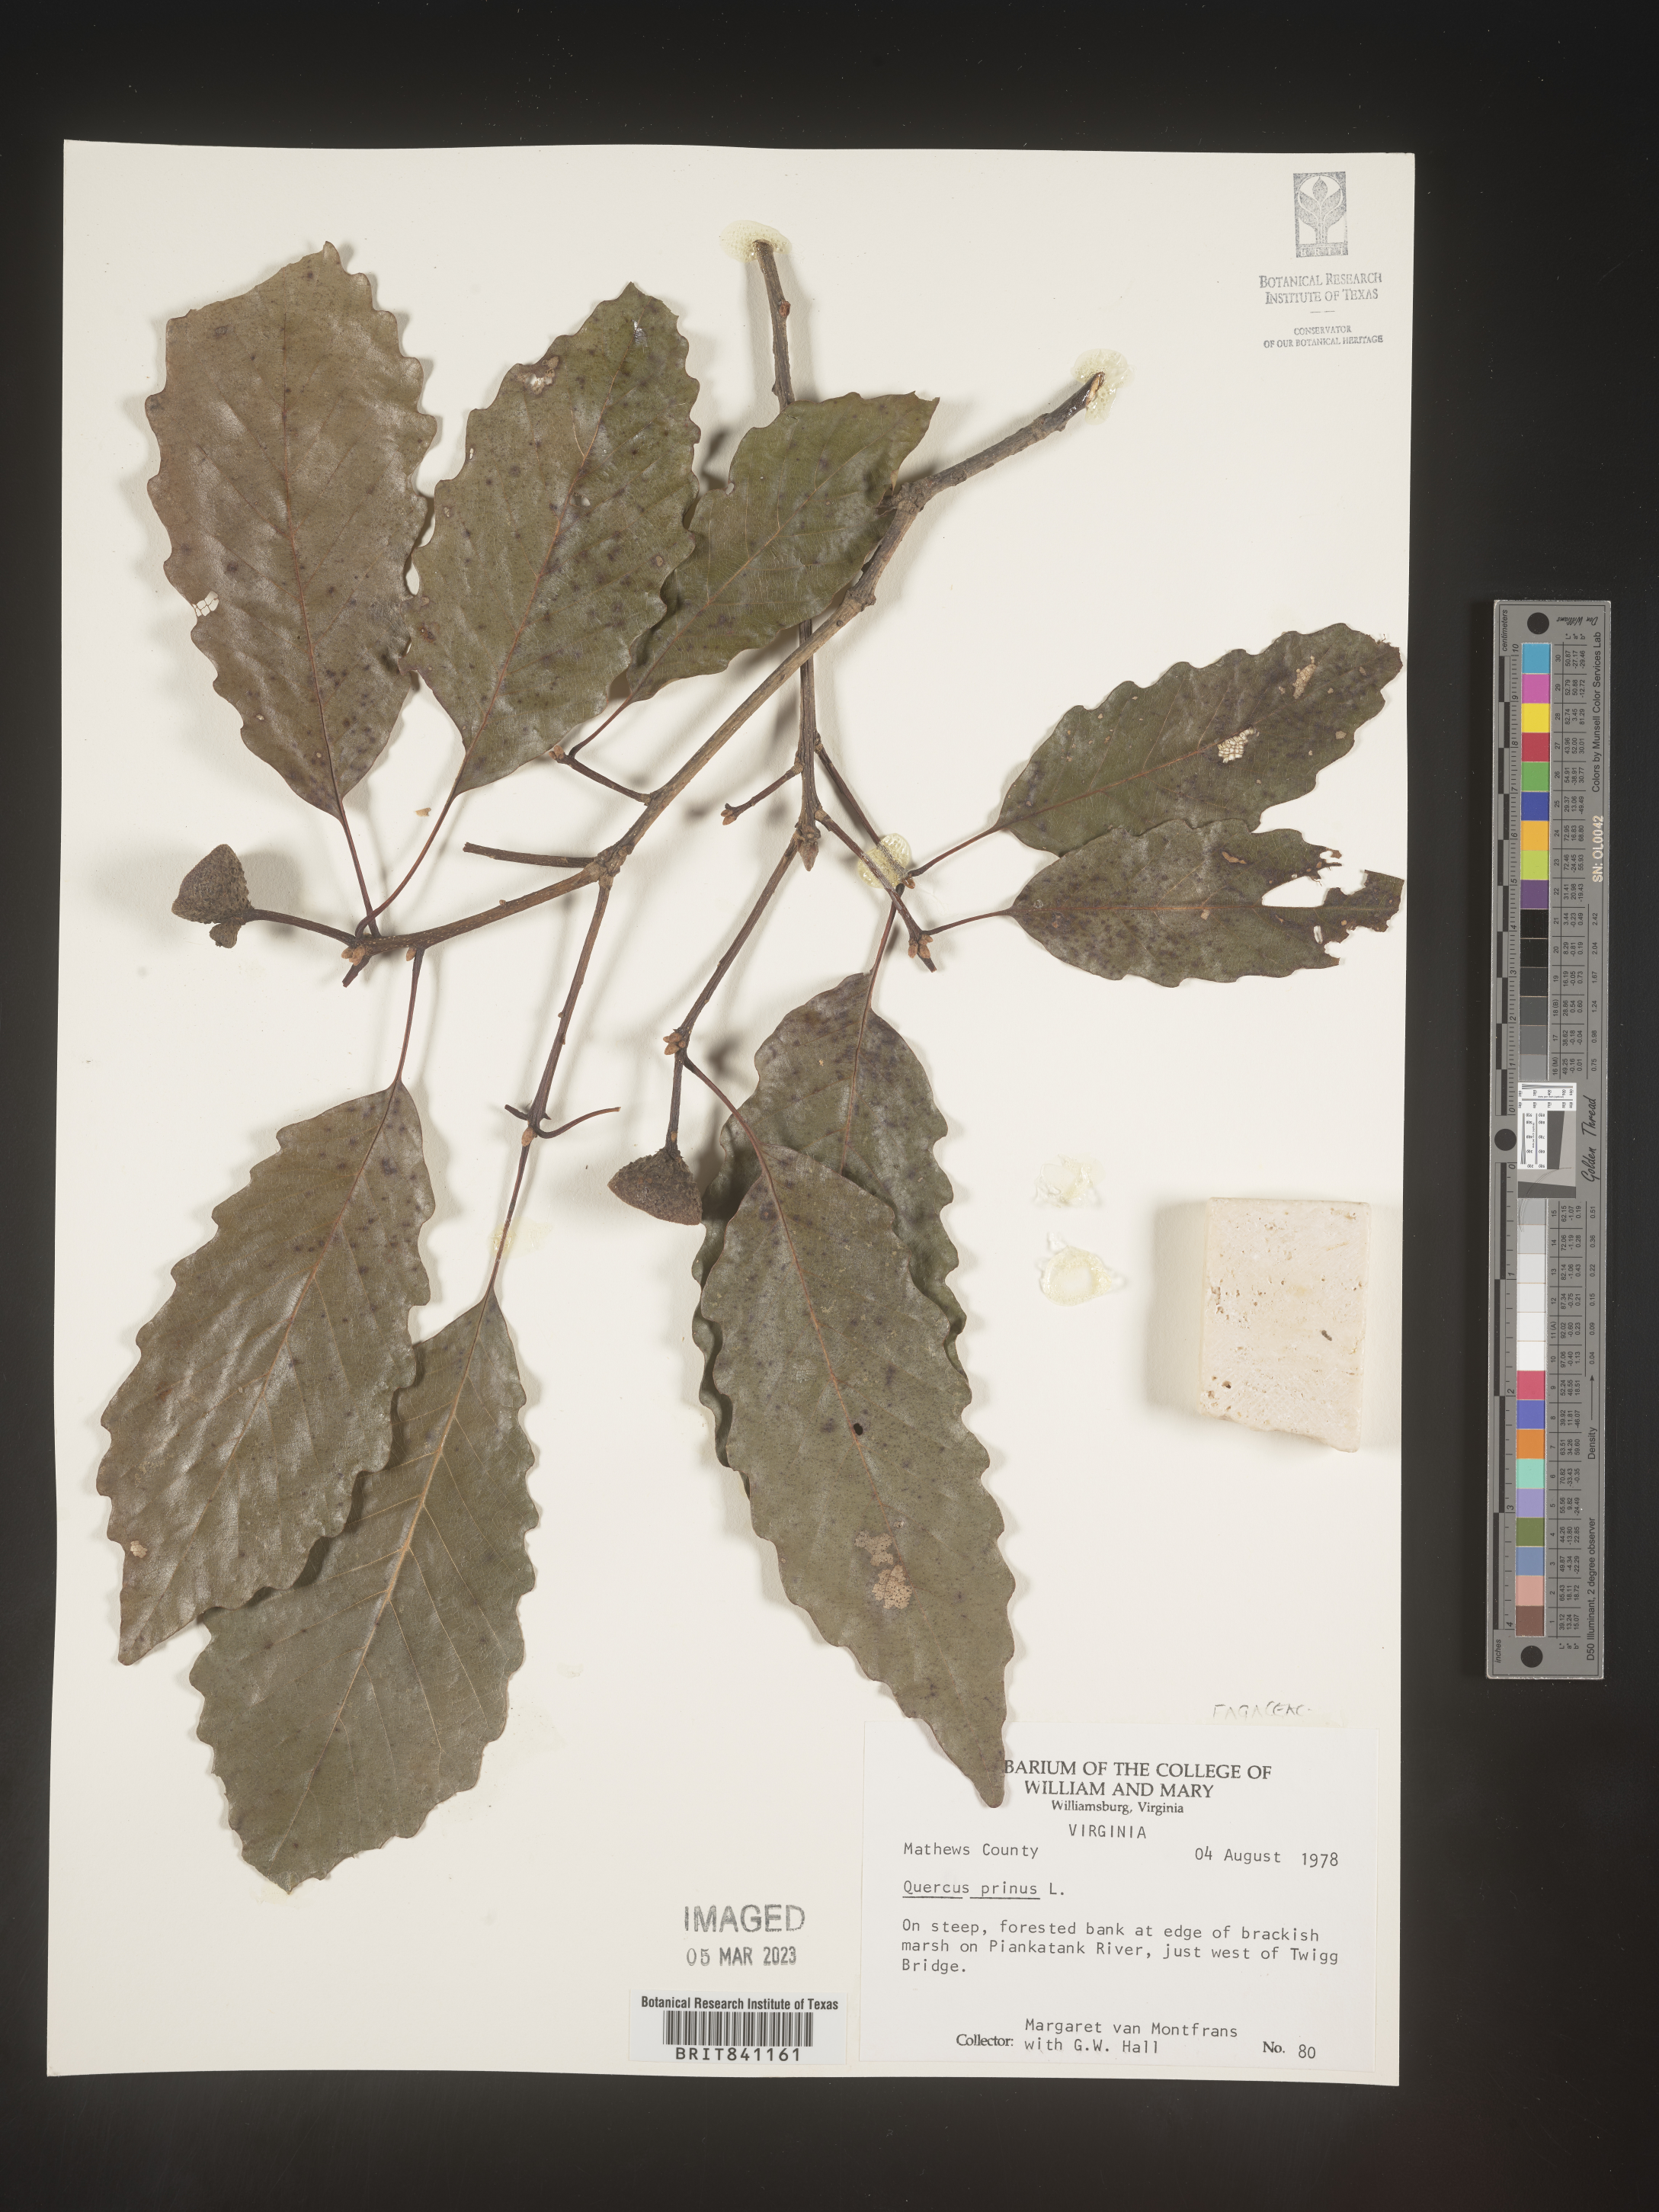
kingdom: Plantae
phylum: Tracheophyta
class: Magnoliopsida
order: Fagales
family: Fagaceae
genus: Quercus
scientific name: Quercus michauxii
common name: Swamp chestnut oak
